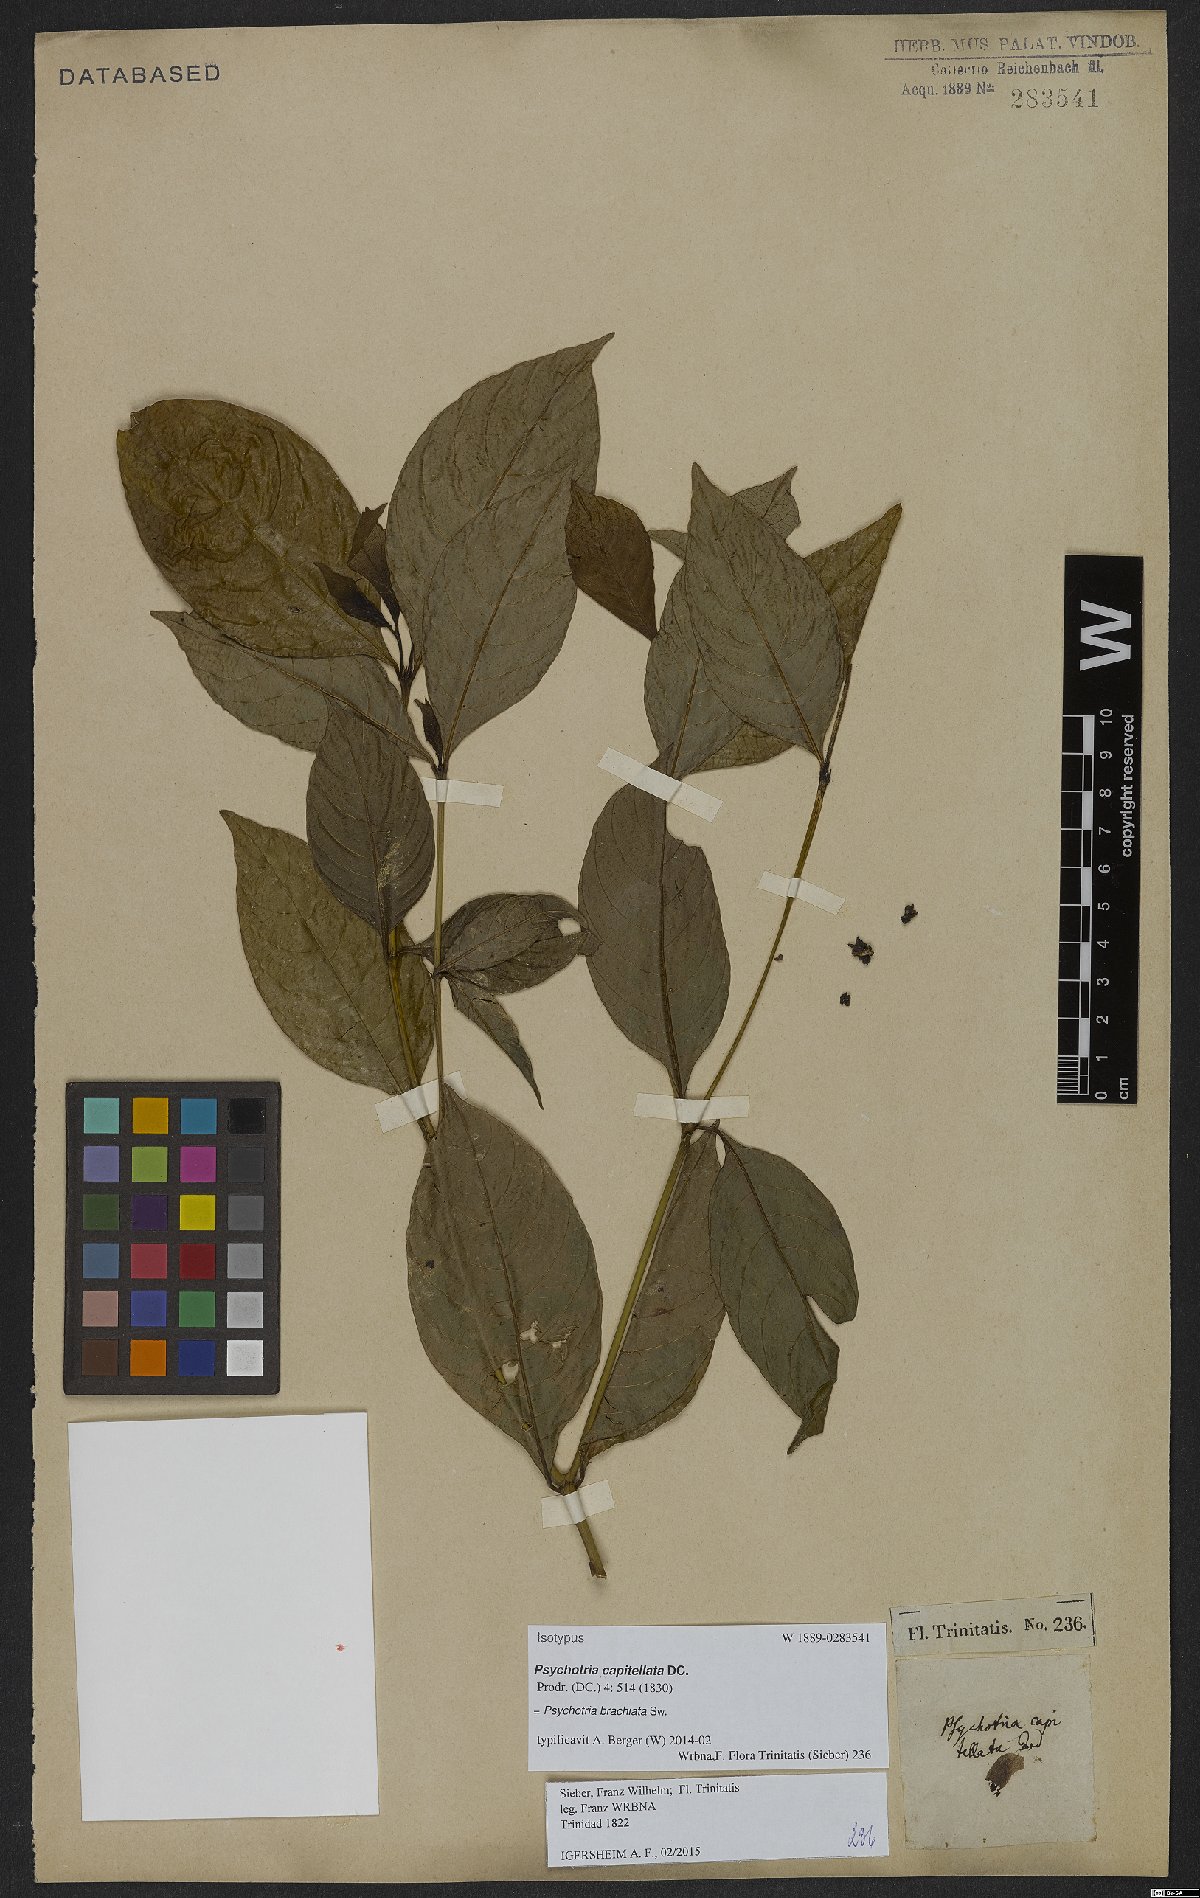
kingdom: Plantae
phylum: Tracheophyta
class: Magnoliopsida
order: Gentianales
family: Rubiaceae
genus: Palicourea
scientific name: Palicourea brachiata
